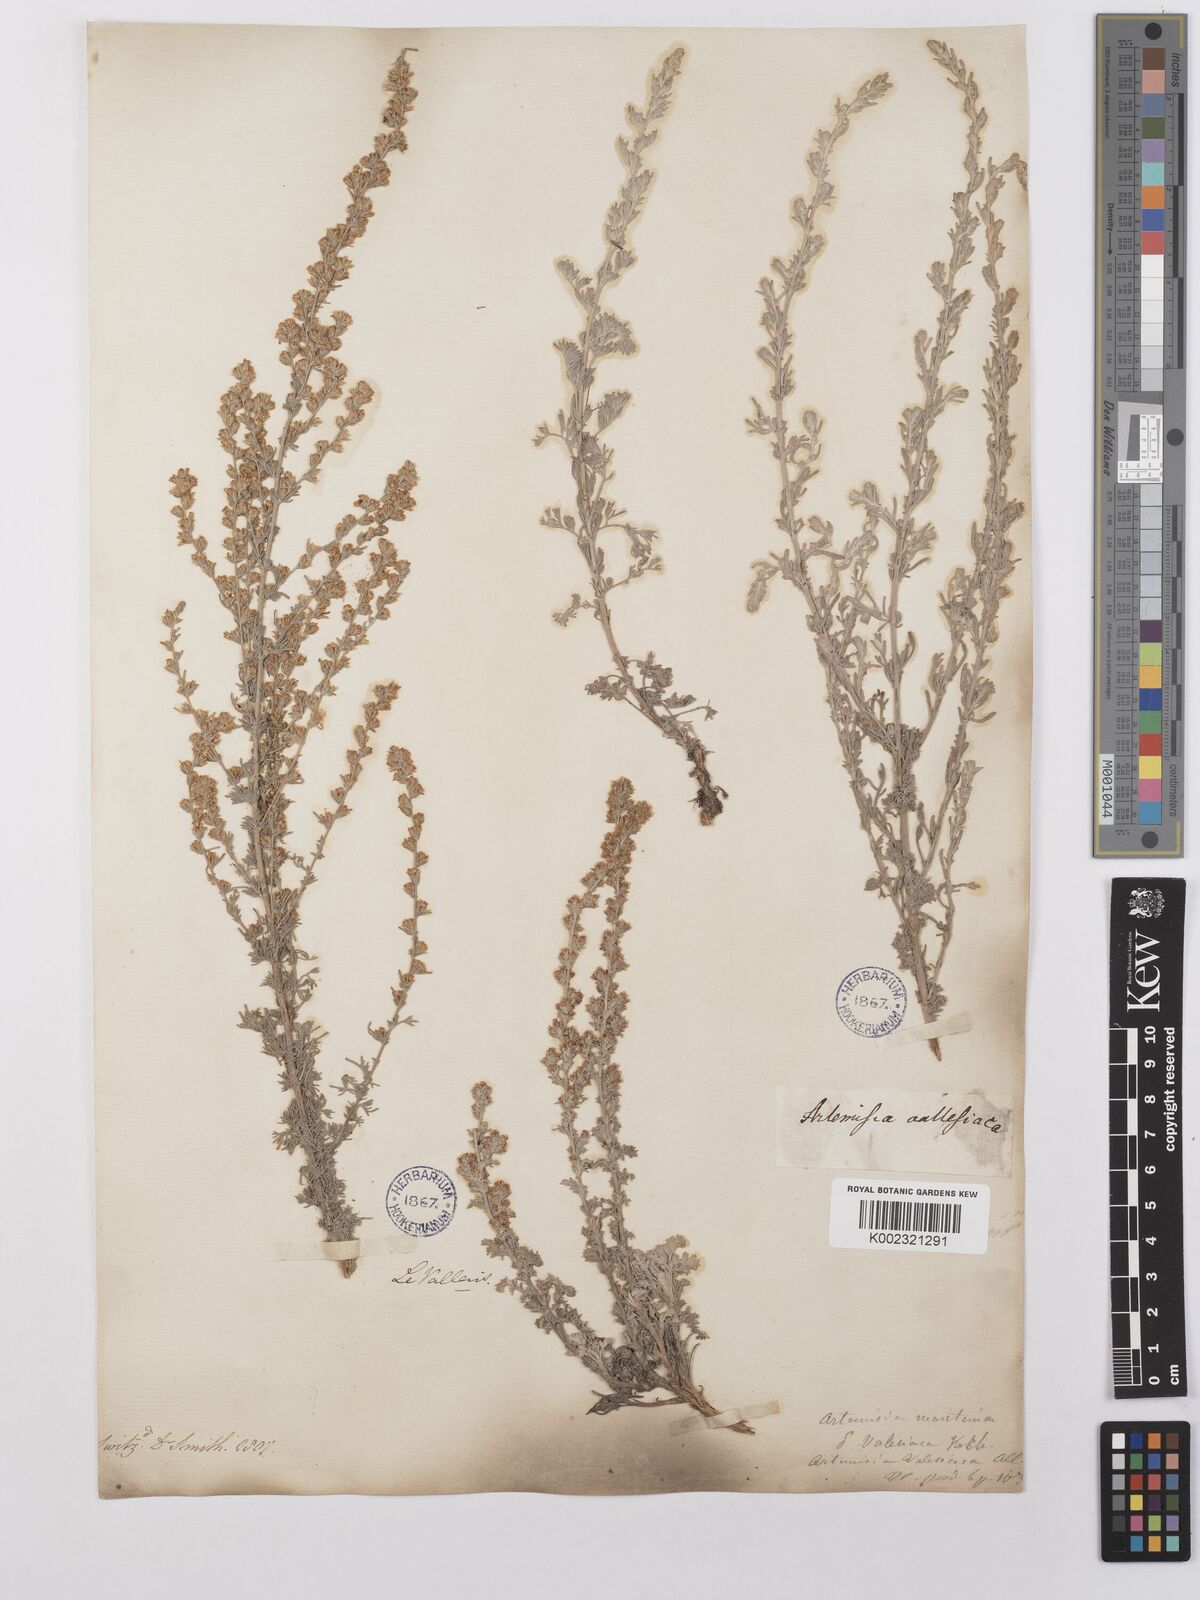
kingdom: Plantae
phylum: Tracheophyta
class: Magnoliopsida
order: Asterales
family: Asteraceae
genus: Artemisia
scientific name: Artemisia vallesiaca
